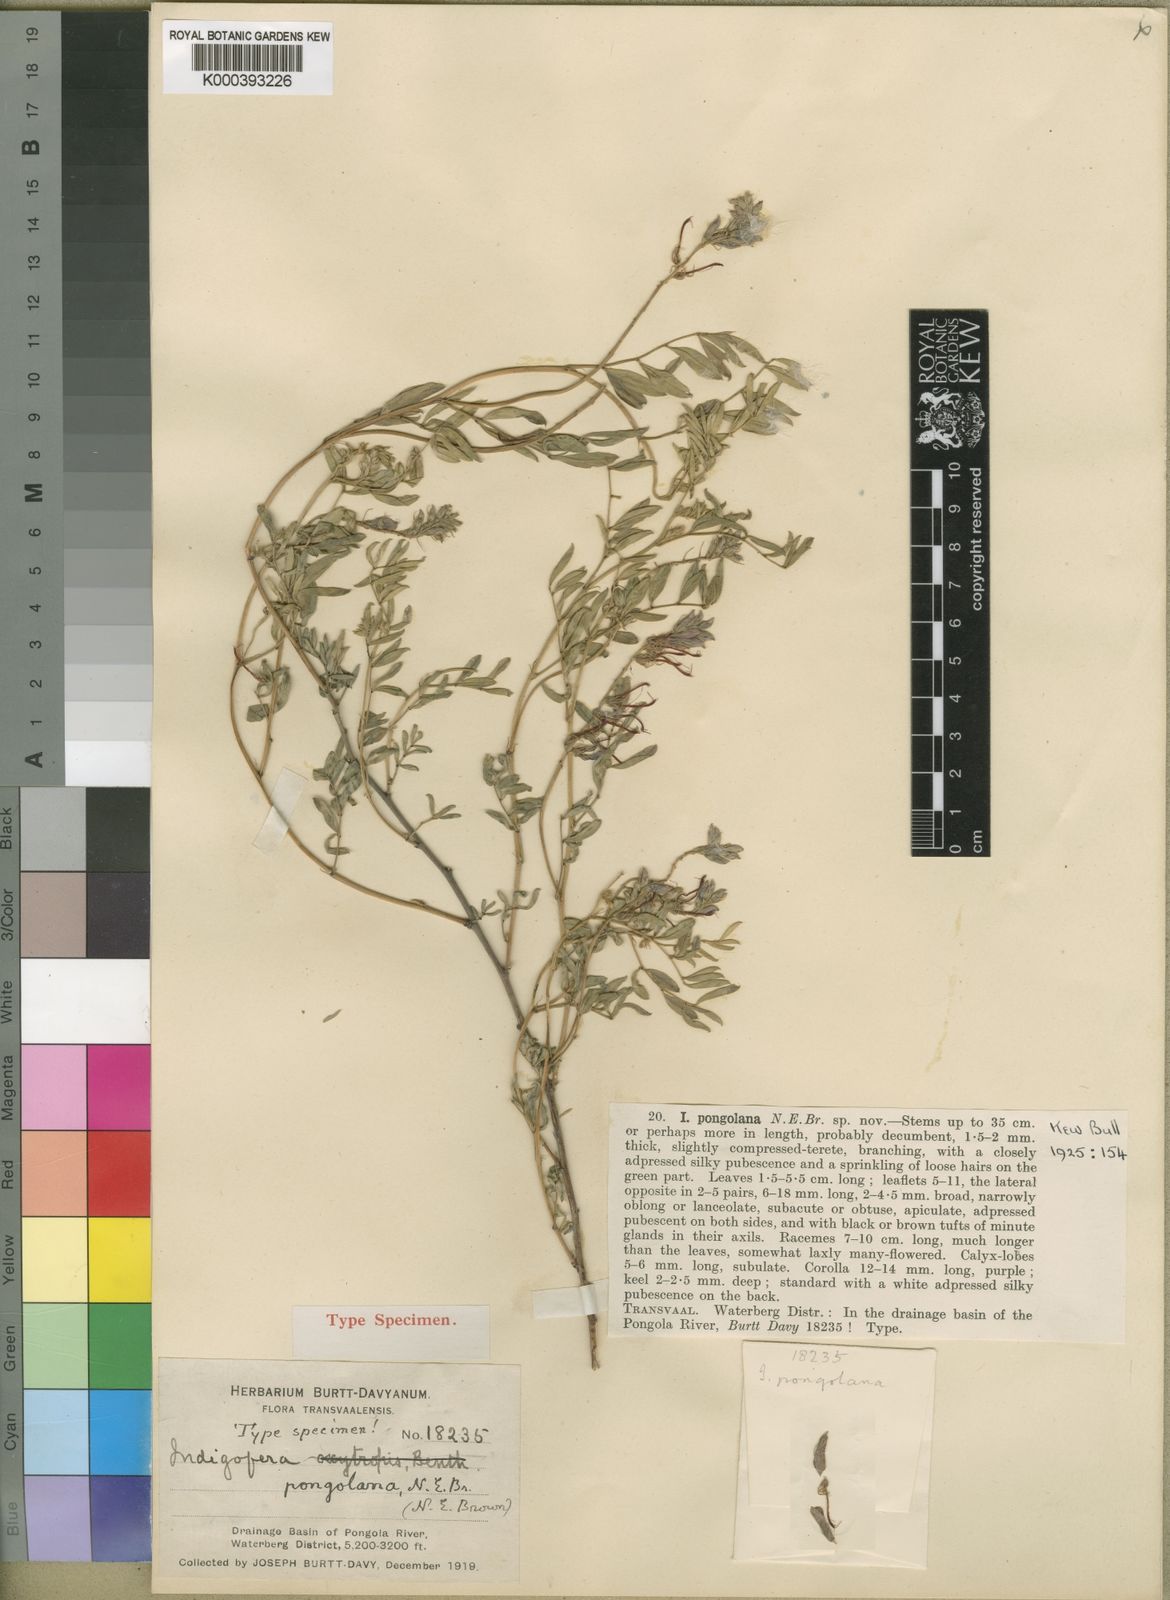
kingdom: Plantae
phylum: Tracheophyta
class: Magnoliopsida
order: Fabales
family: Fabaceae
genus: Indigofera
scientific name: Indigofera pongolana
